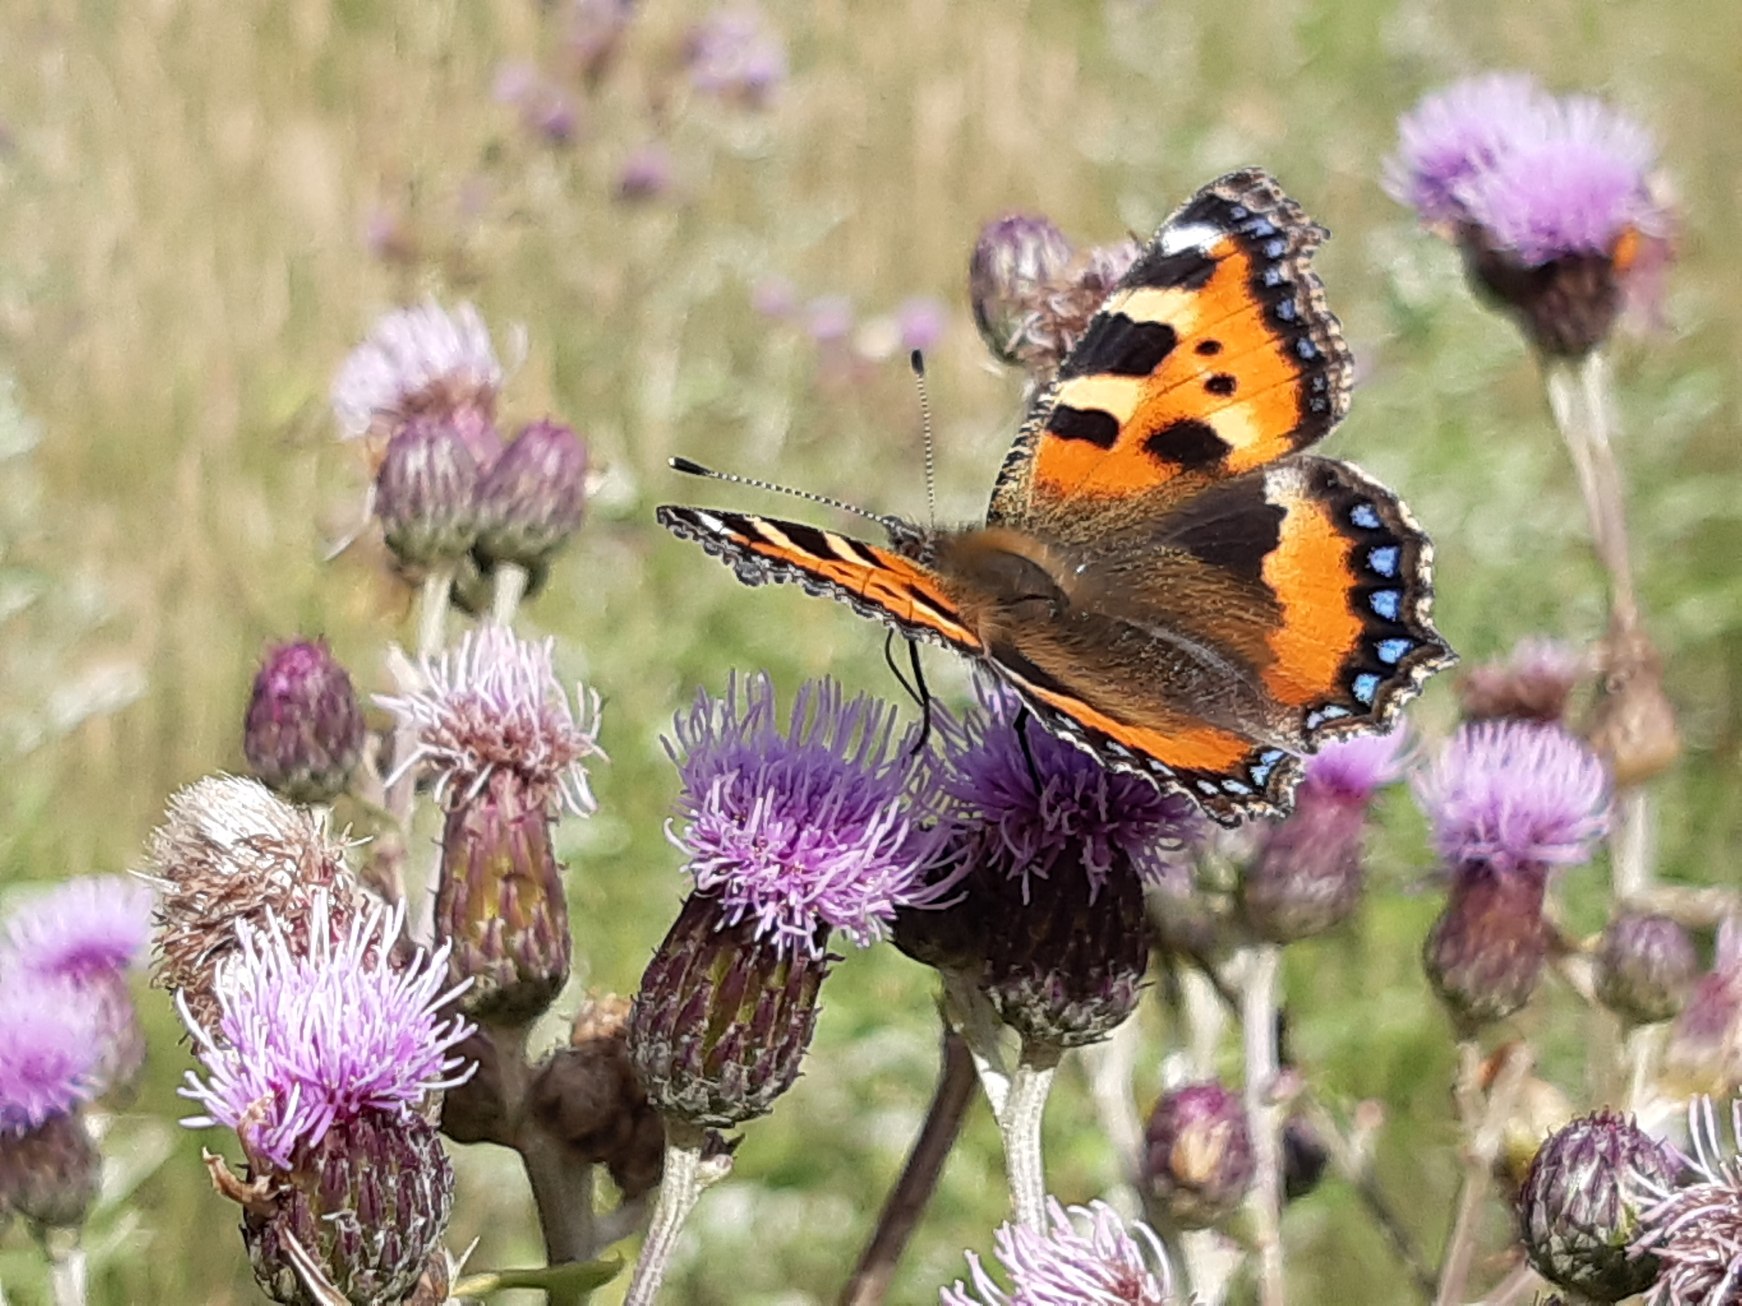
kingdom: Animalia
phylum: Arthropoda
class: Insecta
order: Lepidoptera
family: Nymphalidae
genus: Aglais
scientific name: Aglais urticae
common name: Nældens takvinge
